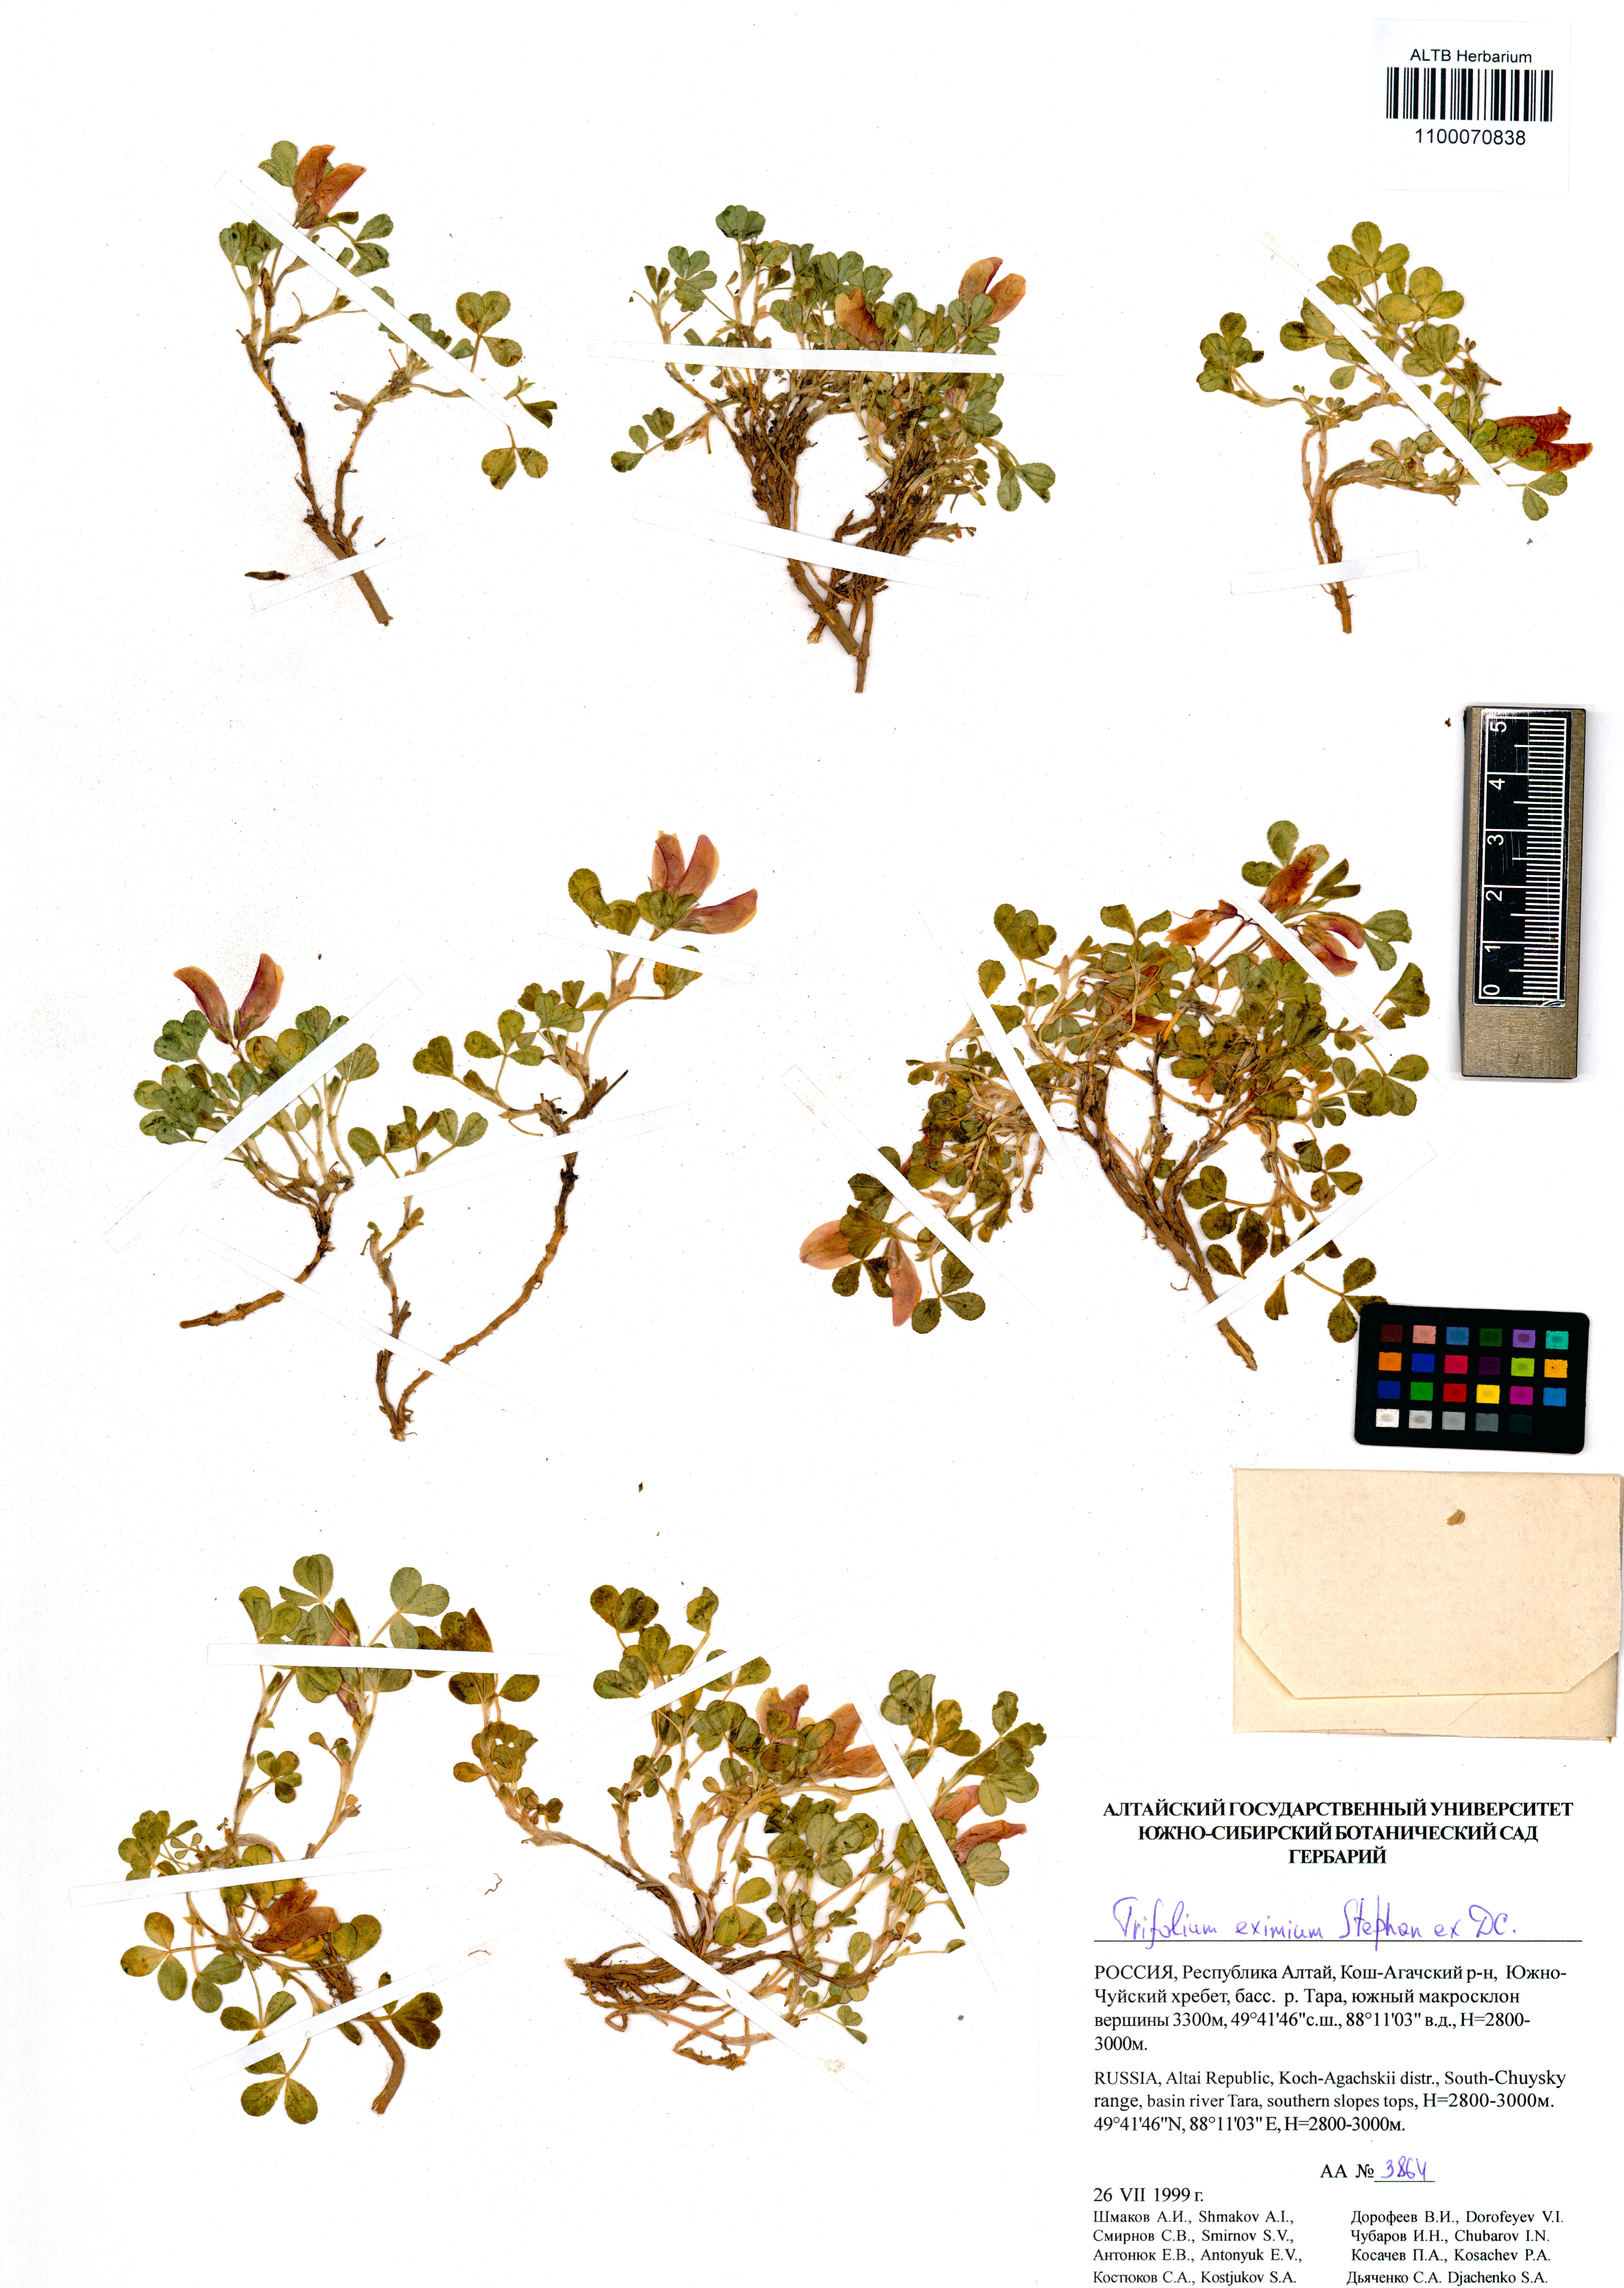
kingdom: Plantae
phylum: Tracheophyta
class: Magnoliopsida
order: Fabales
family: Fabaceae
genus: Trifolium
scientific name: Trifolium eximium
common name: Excellent clover
